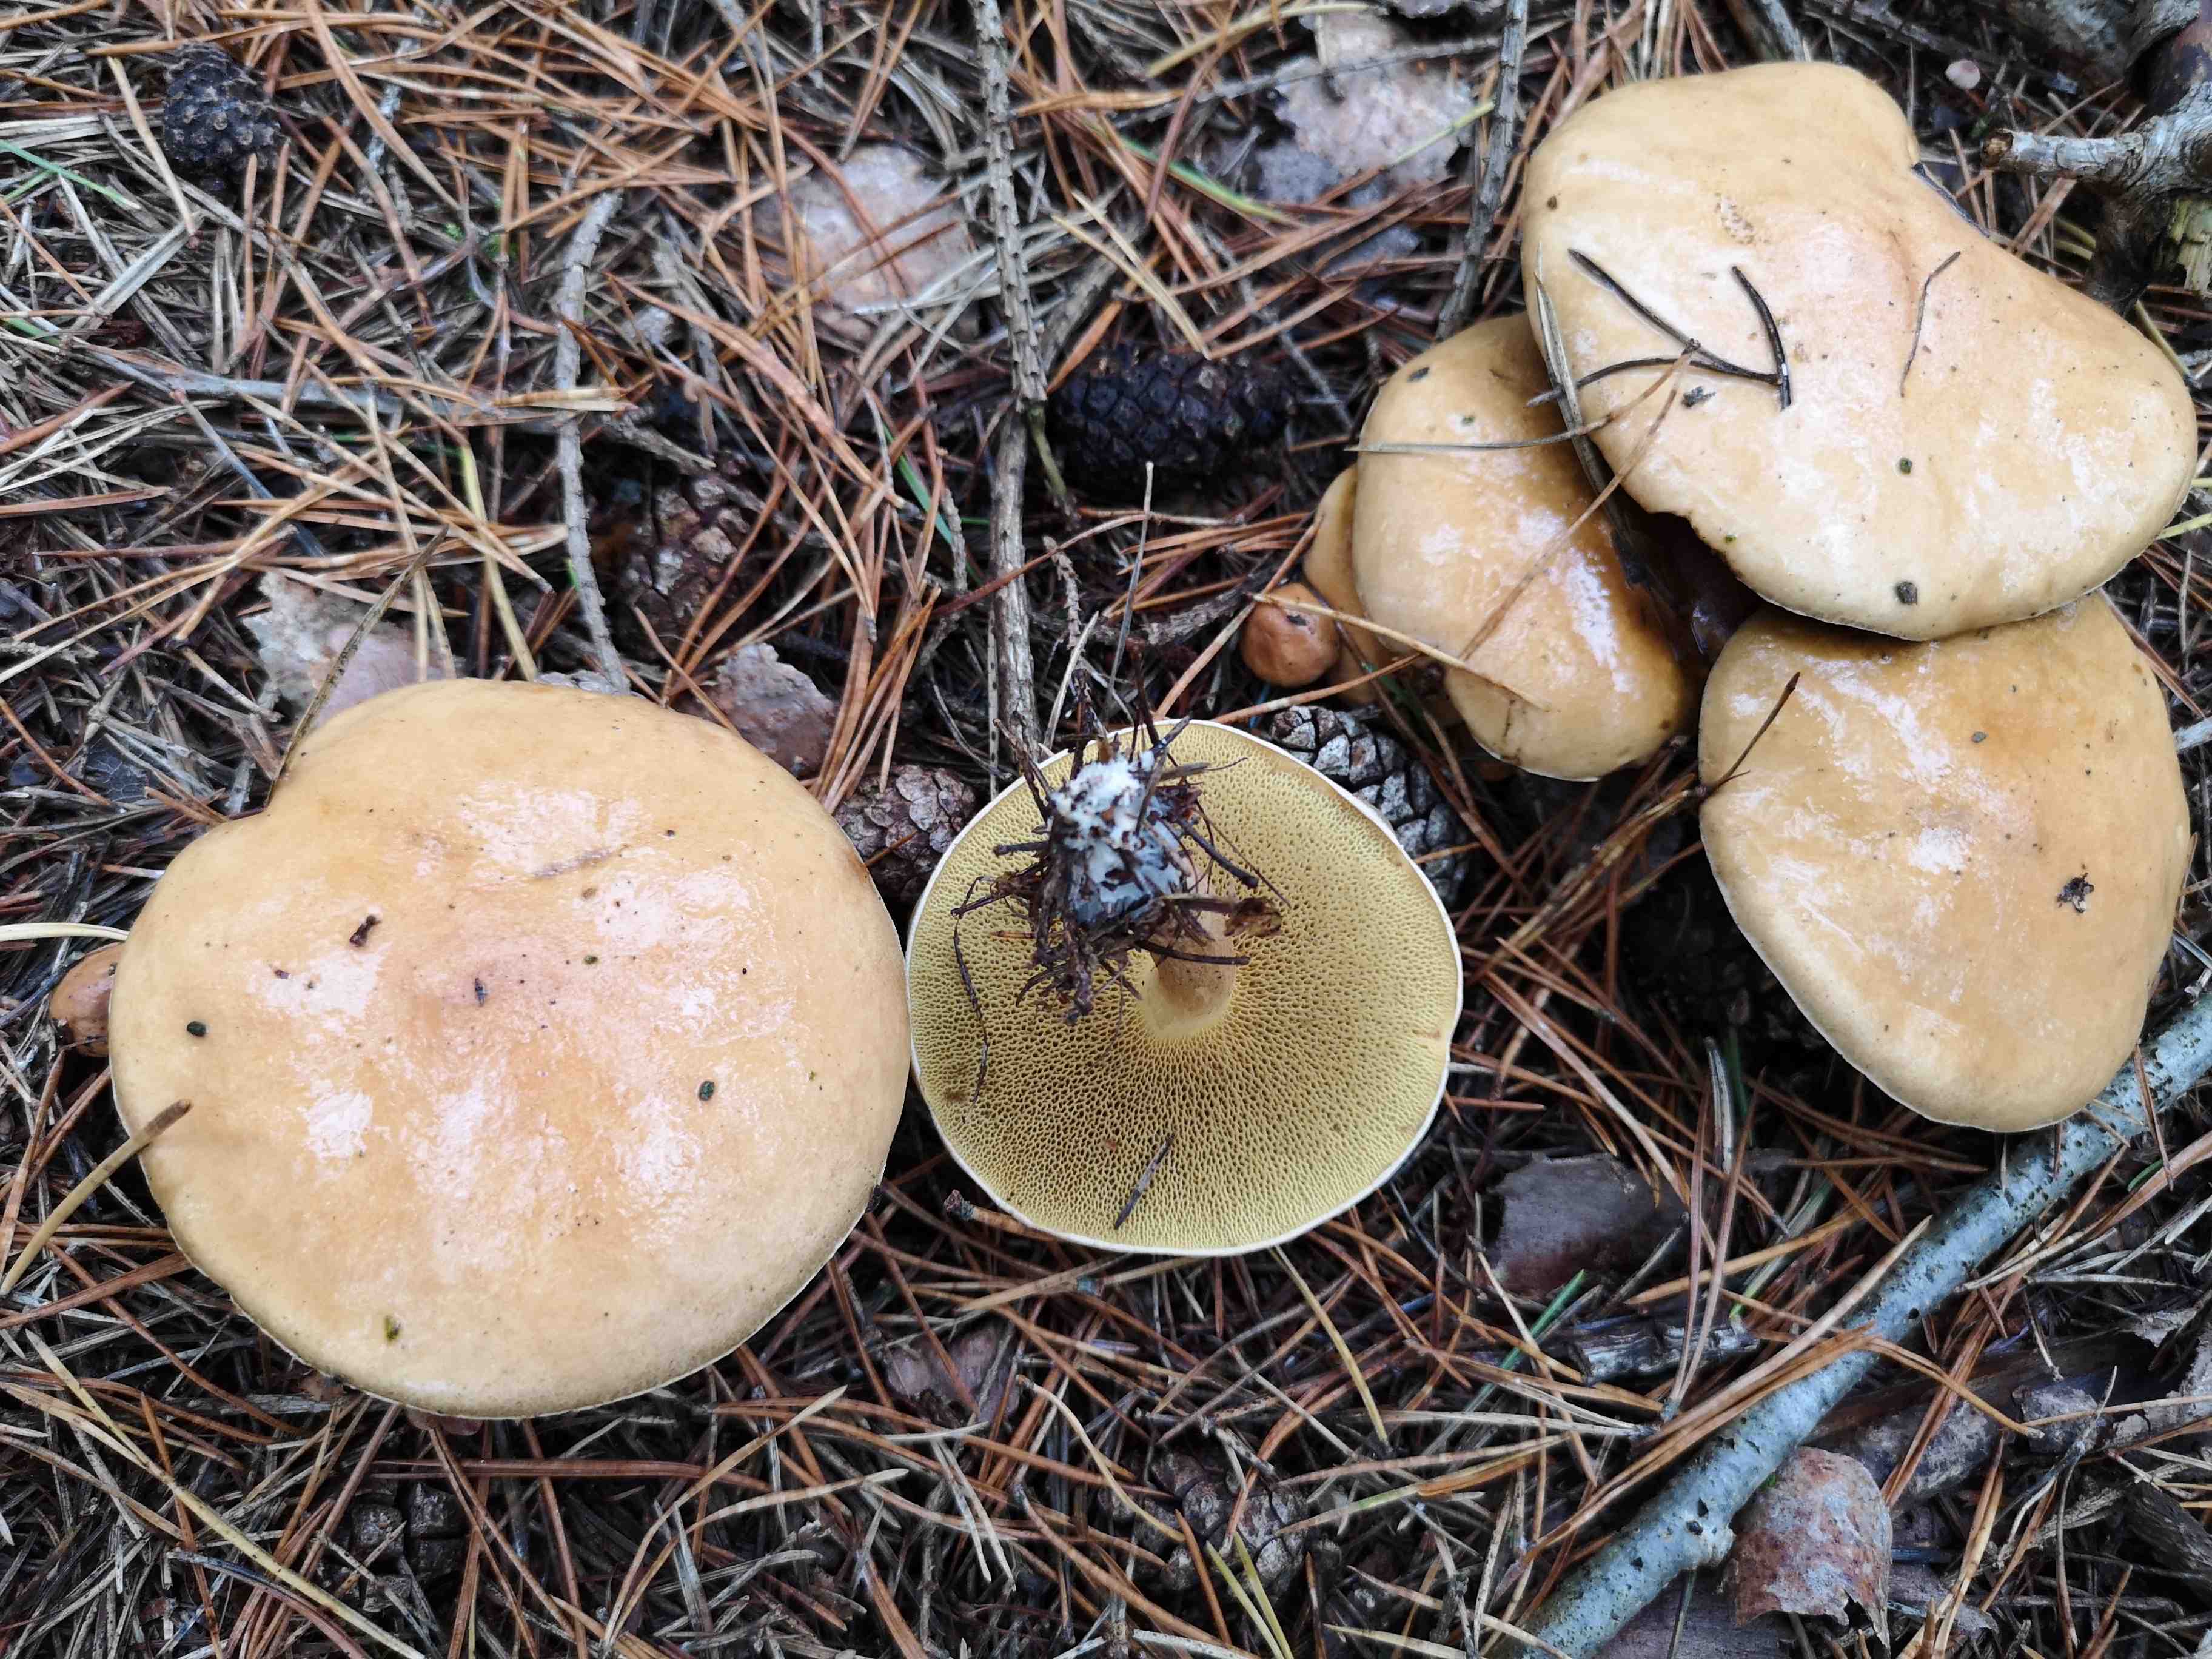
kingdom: Fungi
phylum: Basidiomycota
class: Agaricomycetes
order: Boletales
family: Suillaceae
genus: Suillus
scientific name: Suillus bovinus
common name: grovporet slimrørhat
